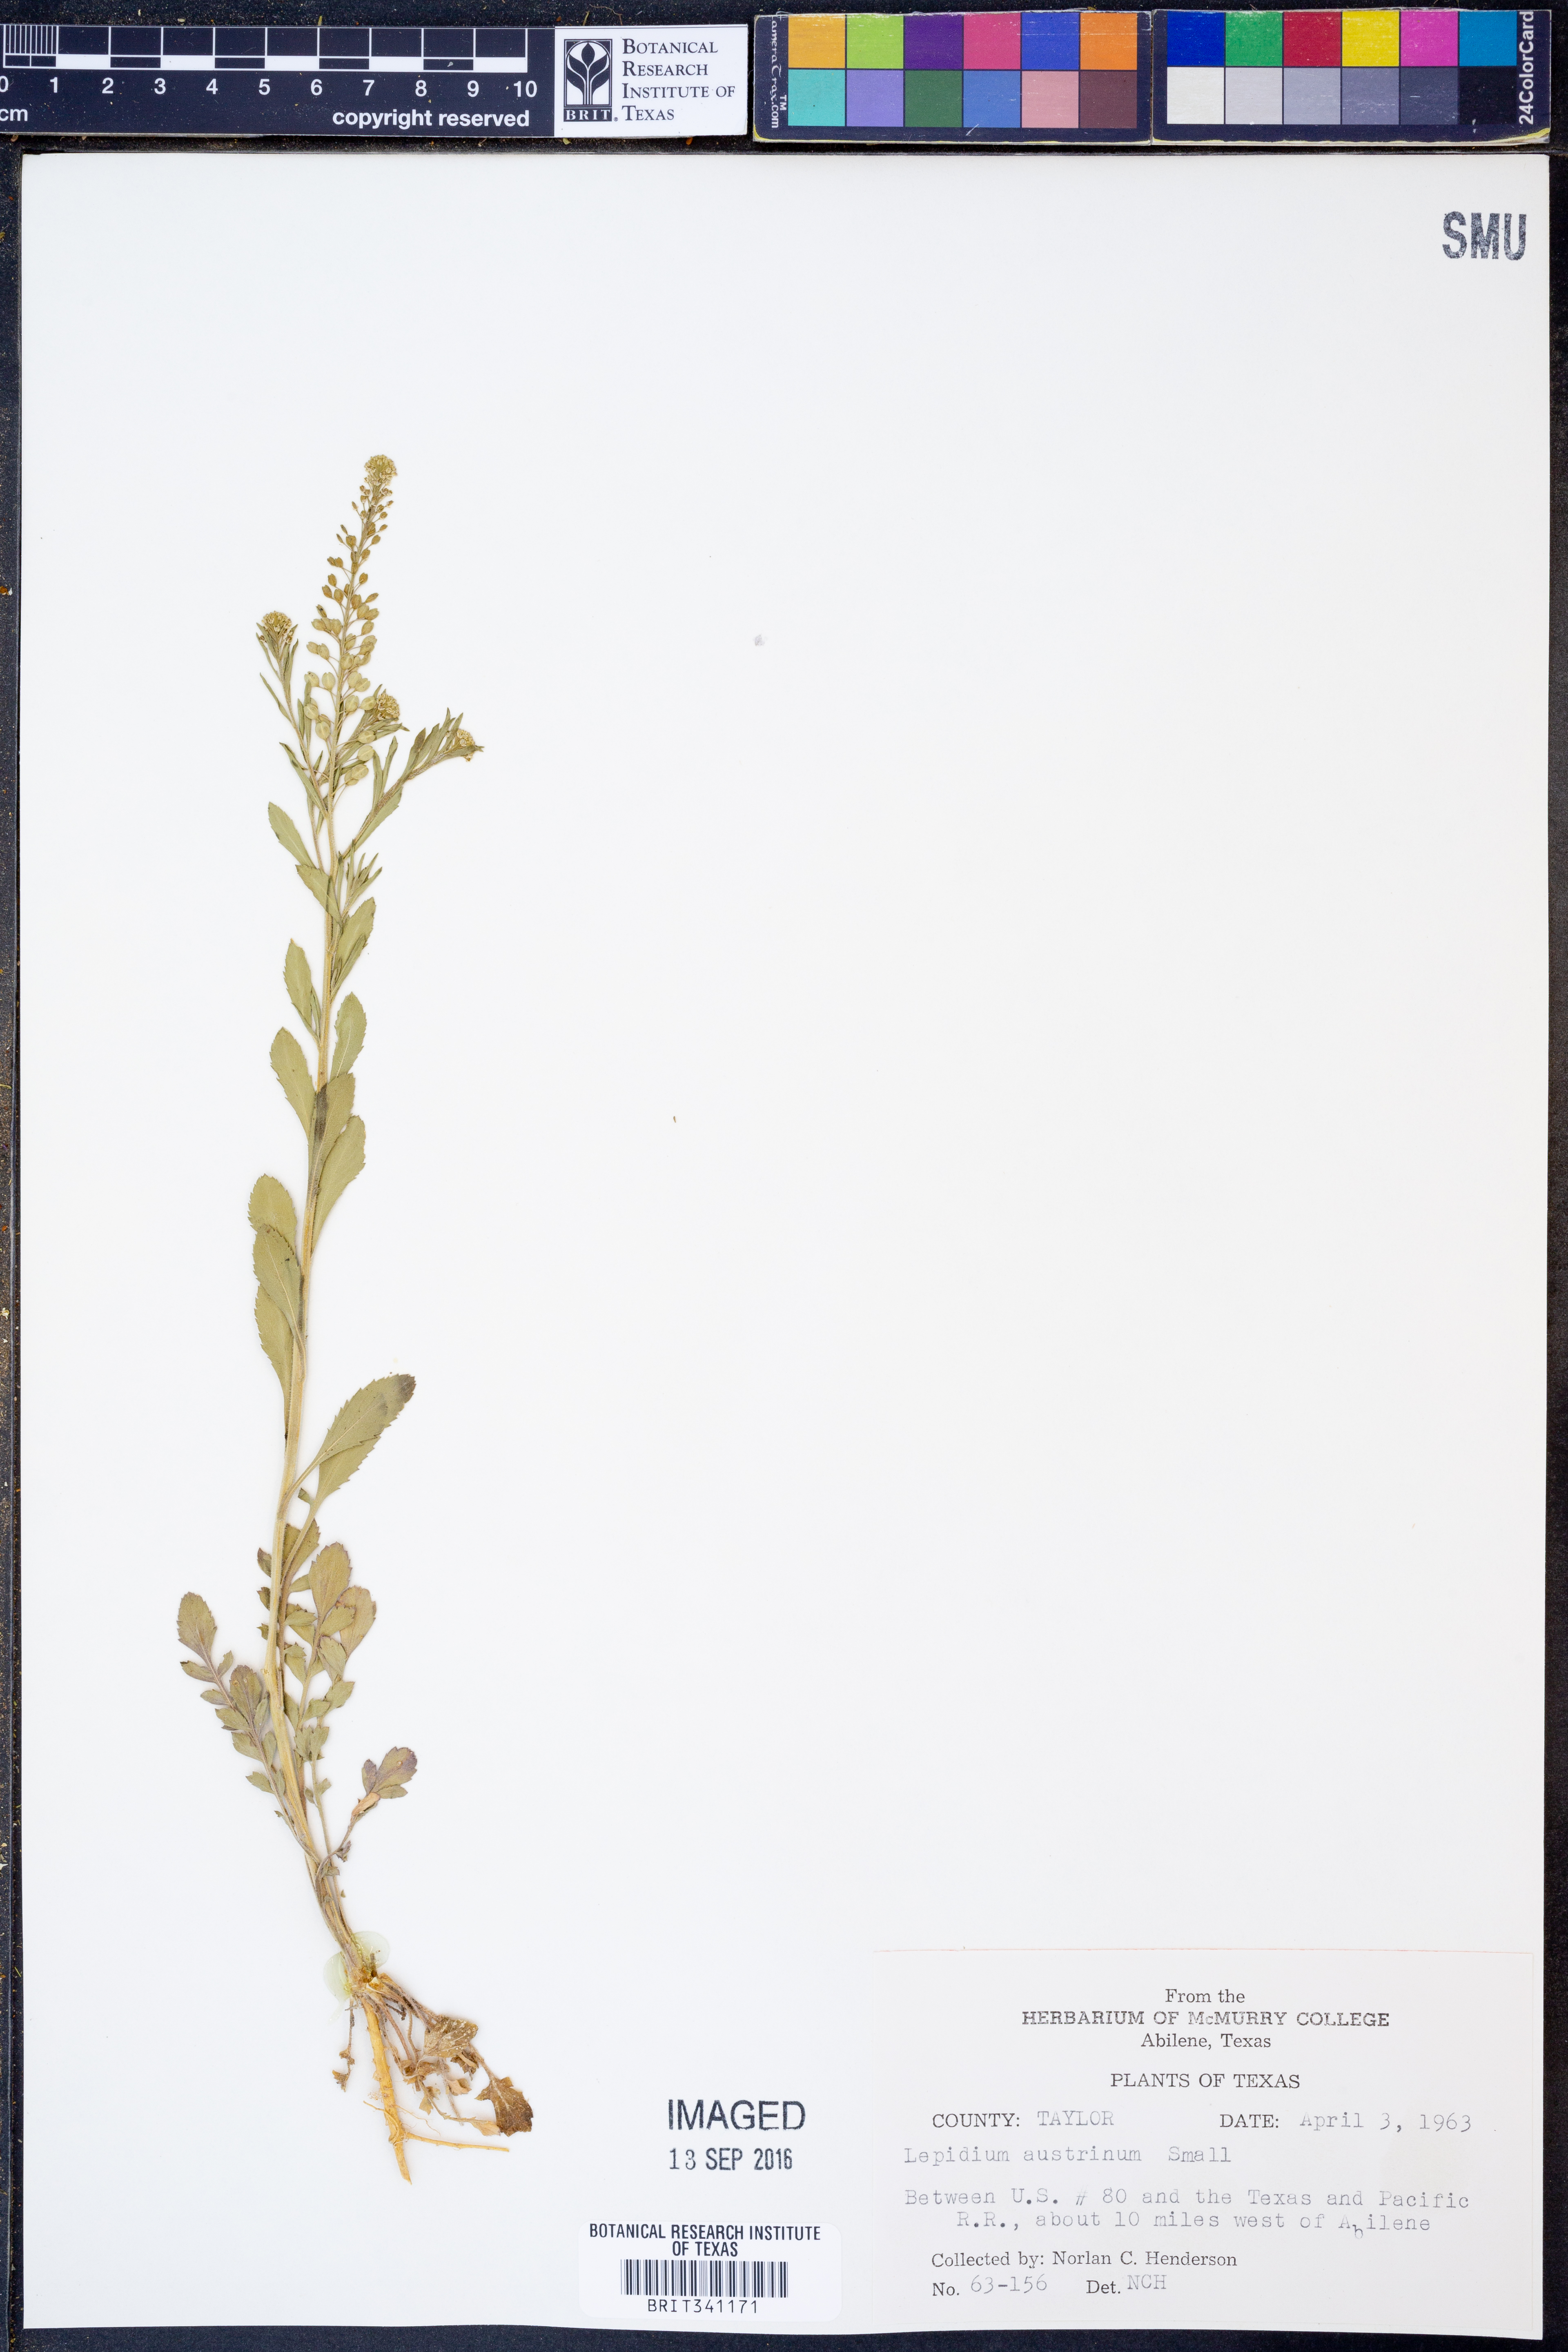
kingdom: Plantae
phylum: Tracheophyta
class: Magnoliopsida
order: Brassicales
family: Brassicaceae
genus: Lepidium
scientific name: Lepidium austrinum
